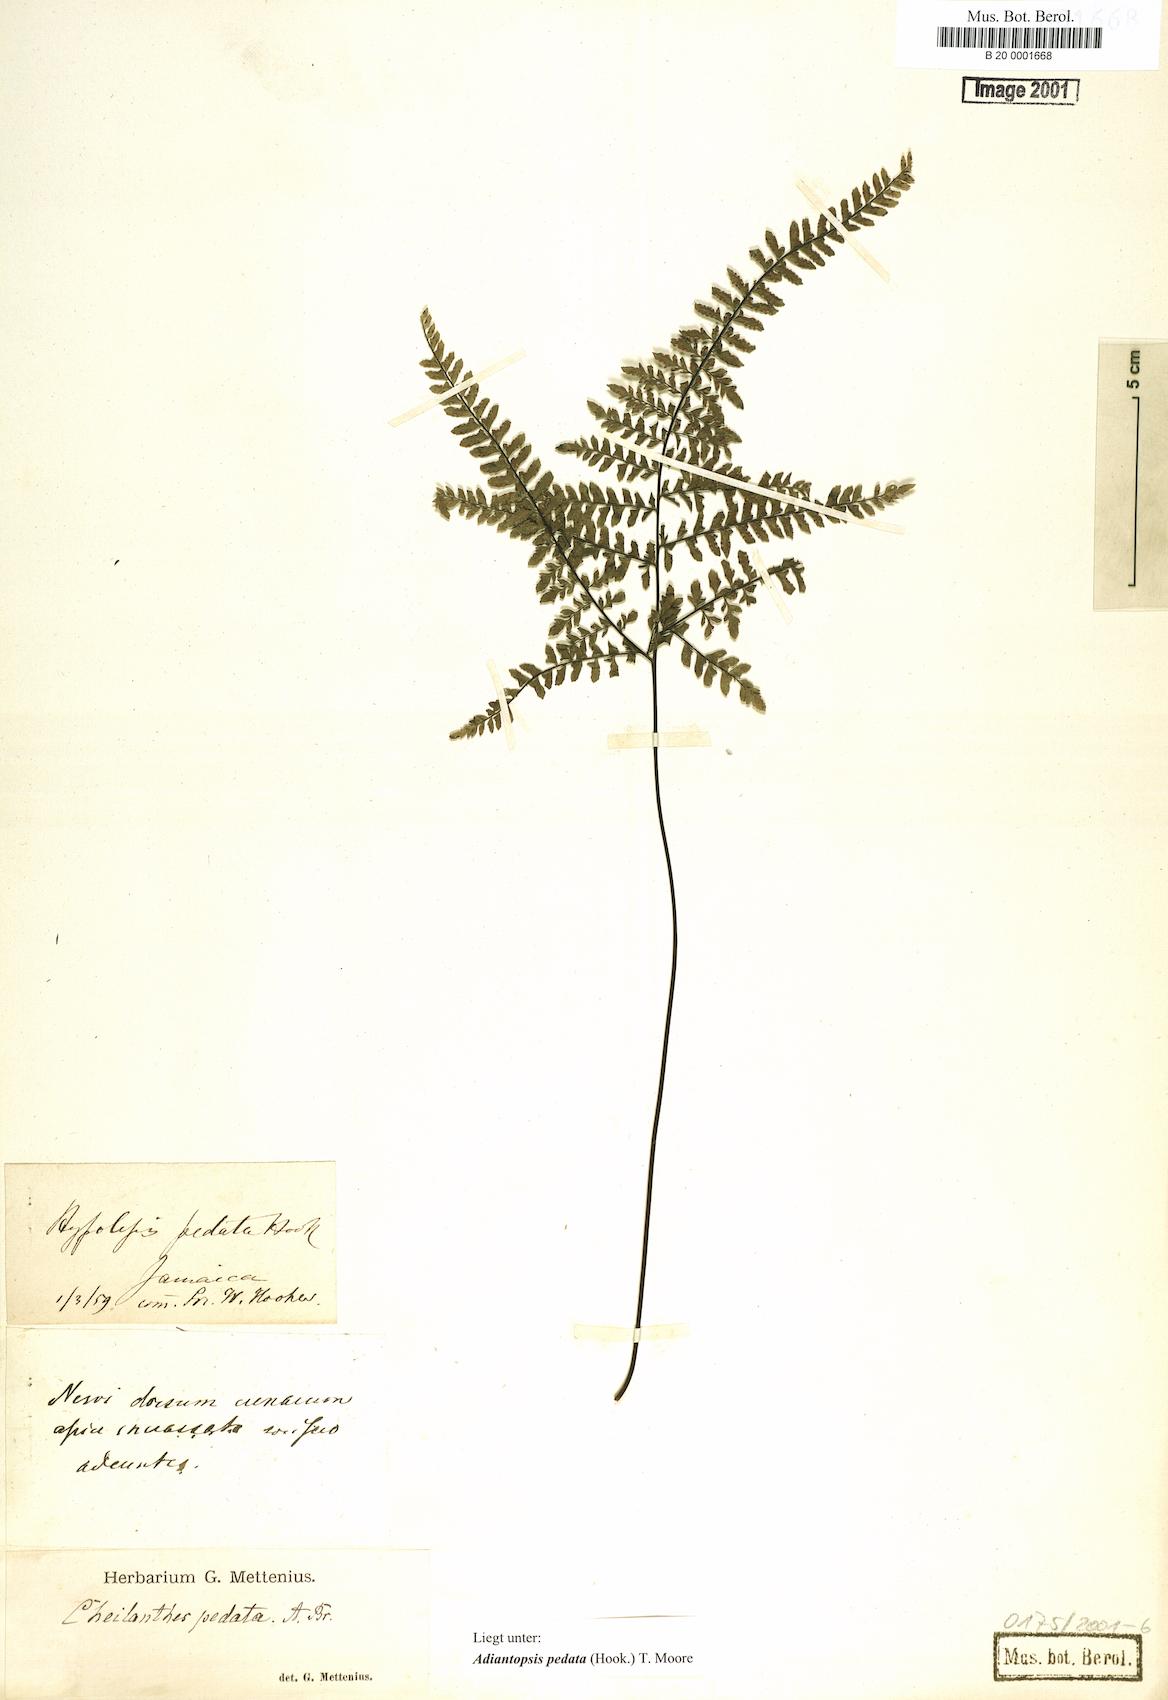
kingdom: Plantae
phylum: Tracheophyta
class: Polypodiopsida
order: Polypodiales
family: Pteridaceae
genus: Adiantopsis
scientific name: Adiantopsis pedata
